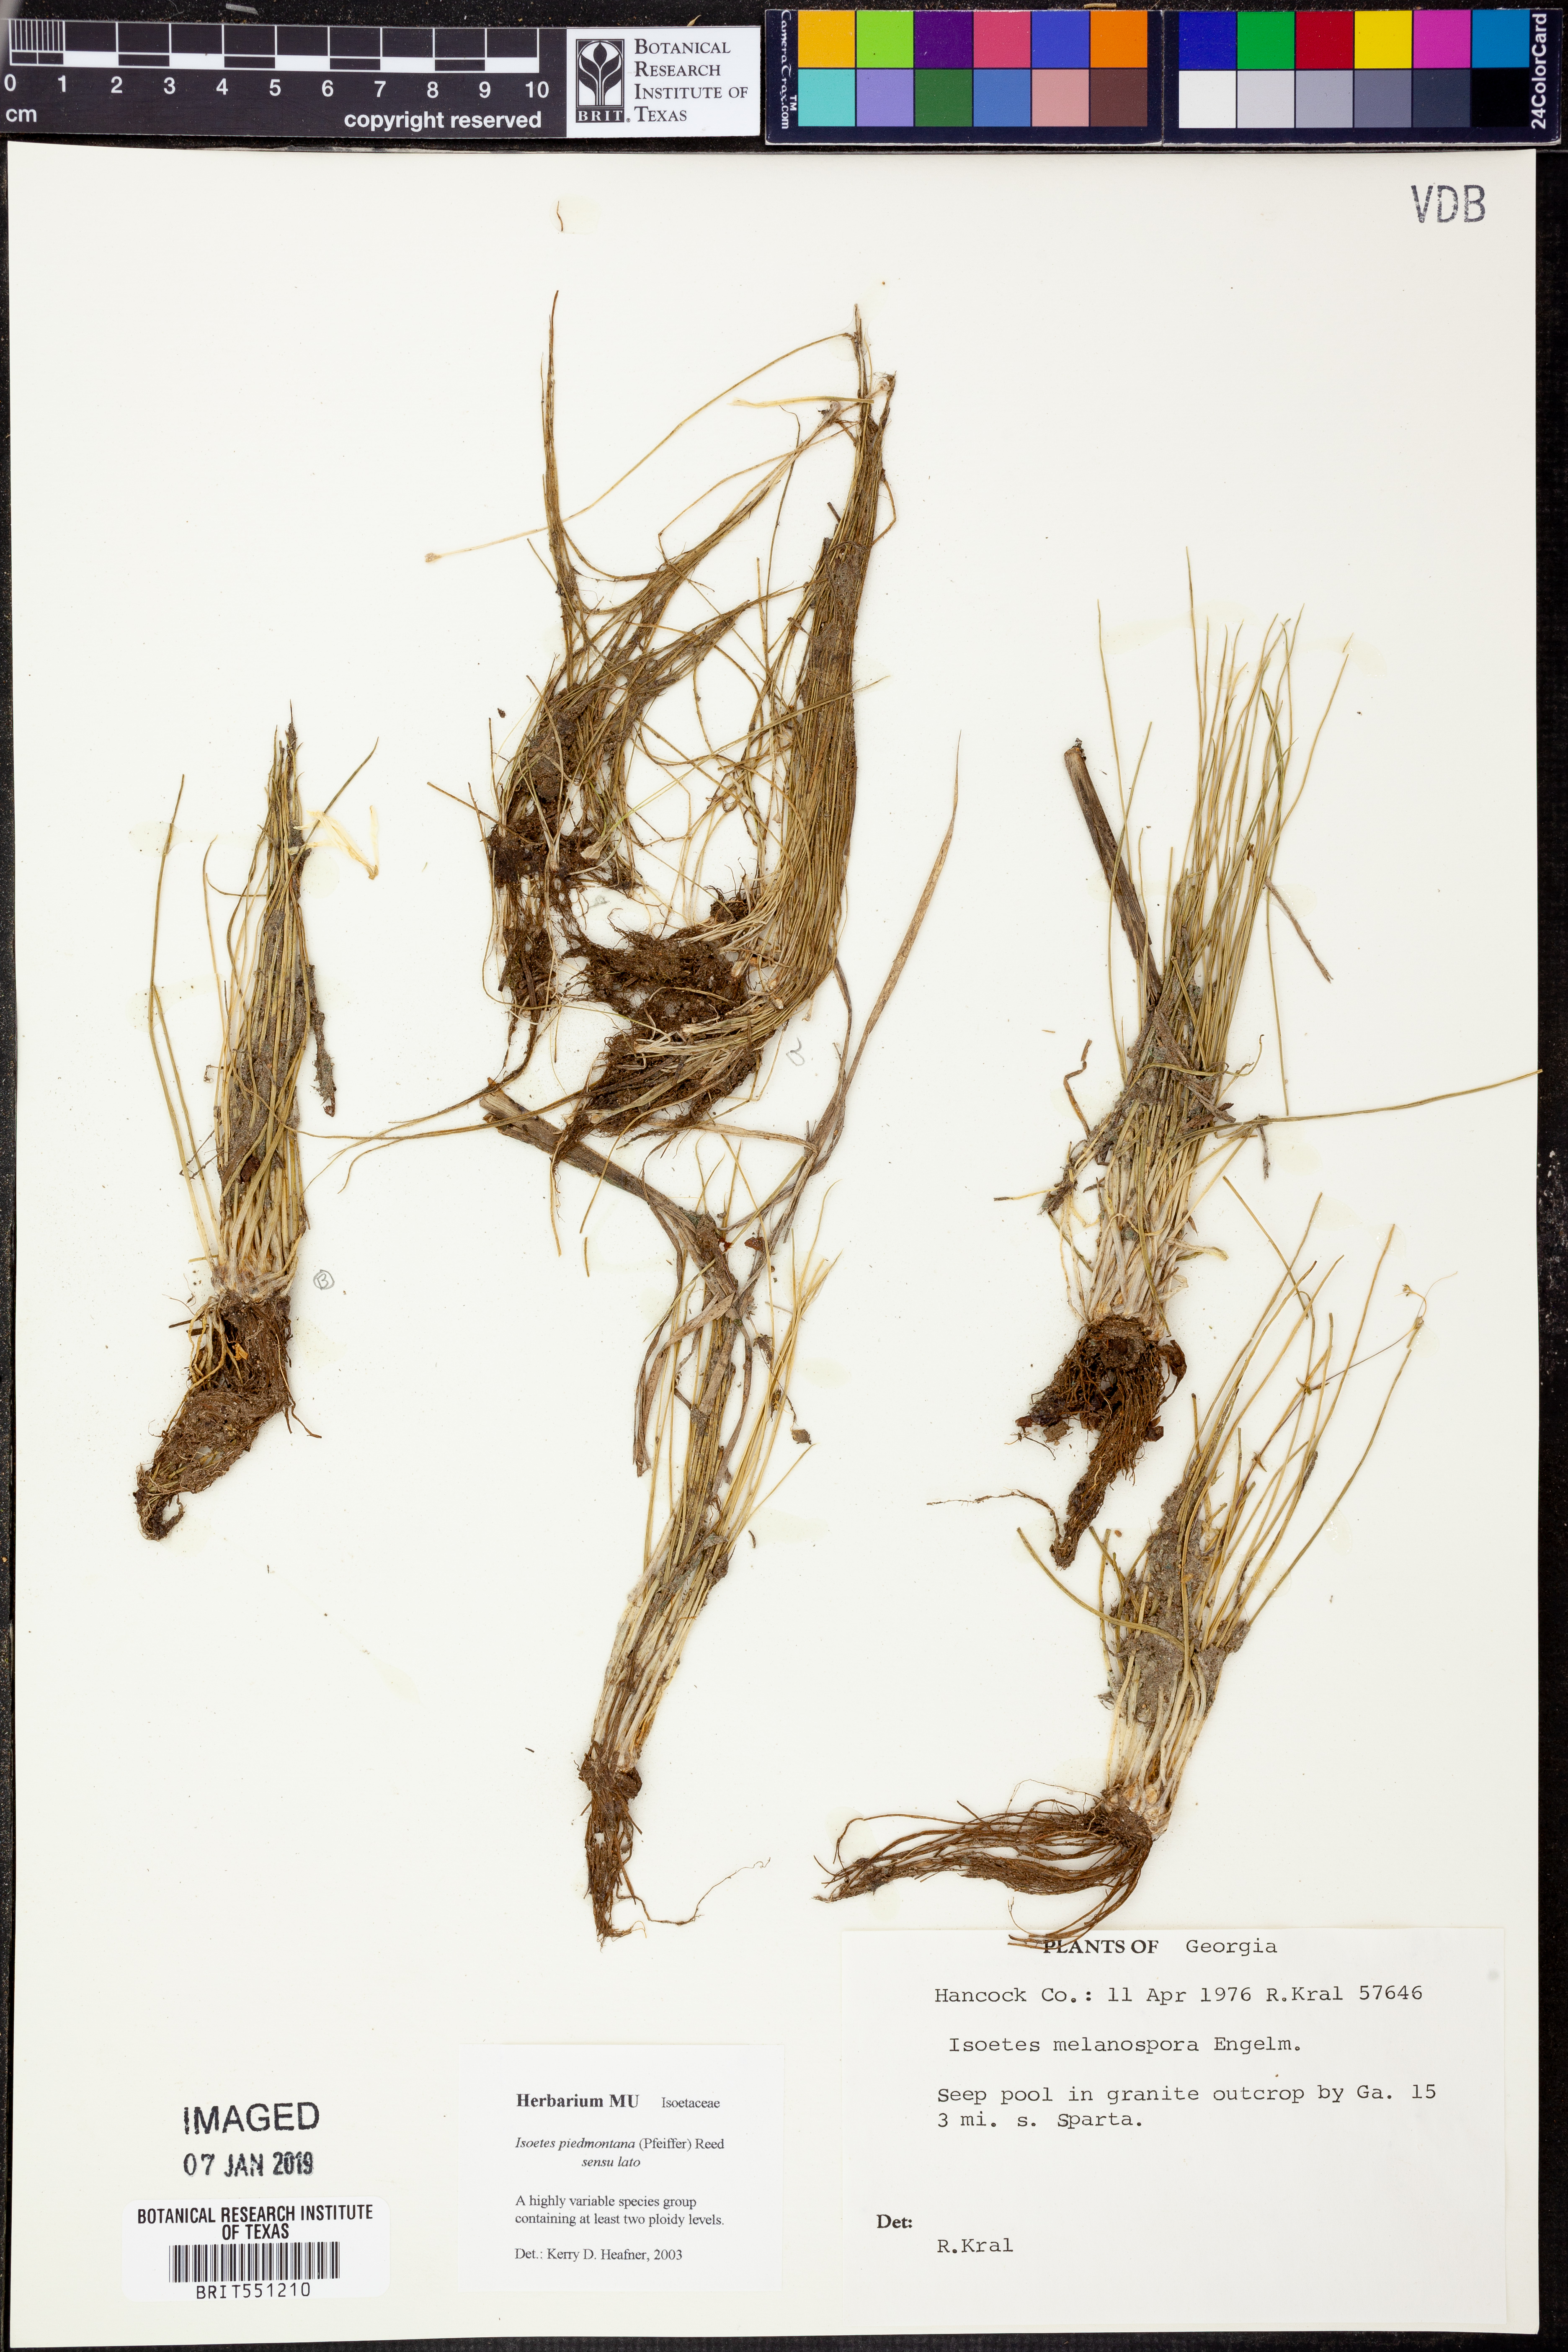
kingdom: Plantae
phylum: Tracheophyta
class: Lycopodiopsida
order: Isoetales
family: Isoetaceae
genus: Isoetes
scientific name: Isoetes virginica
